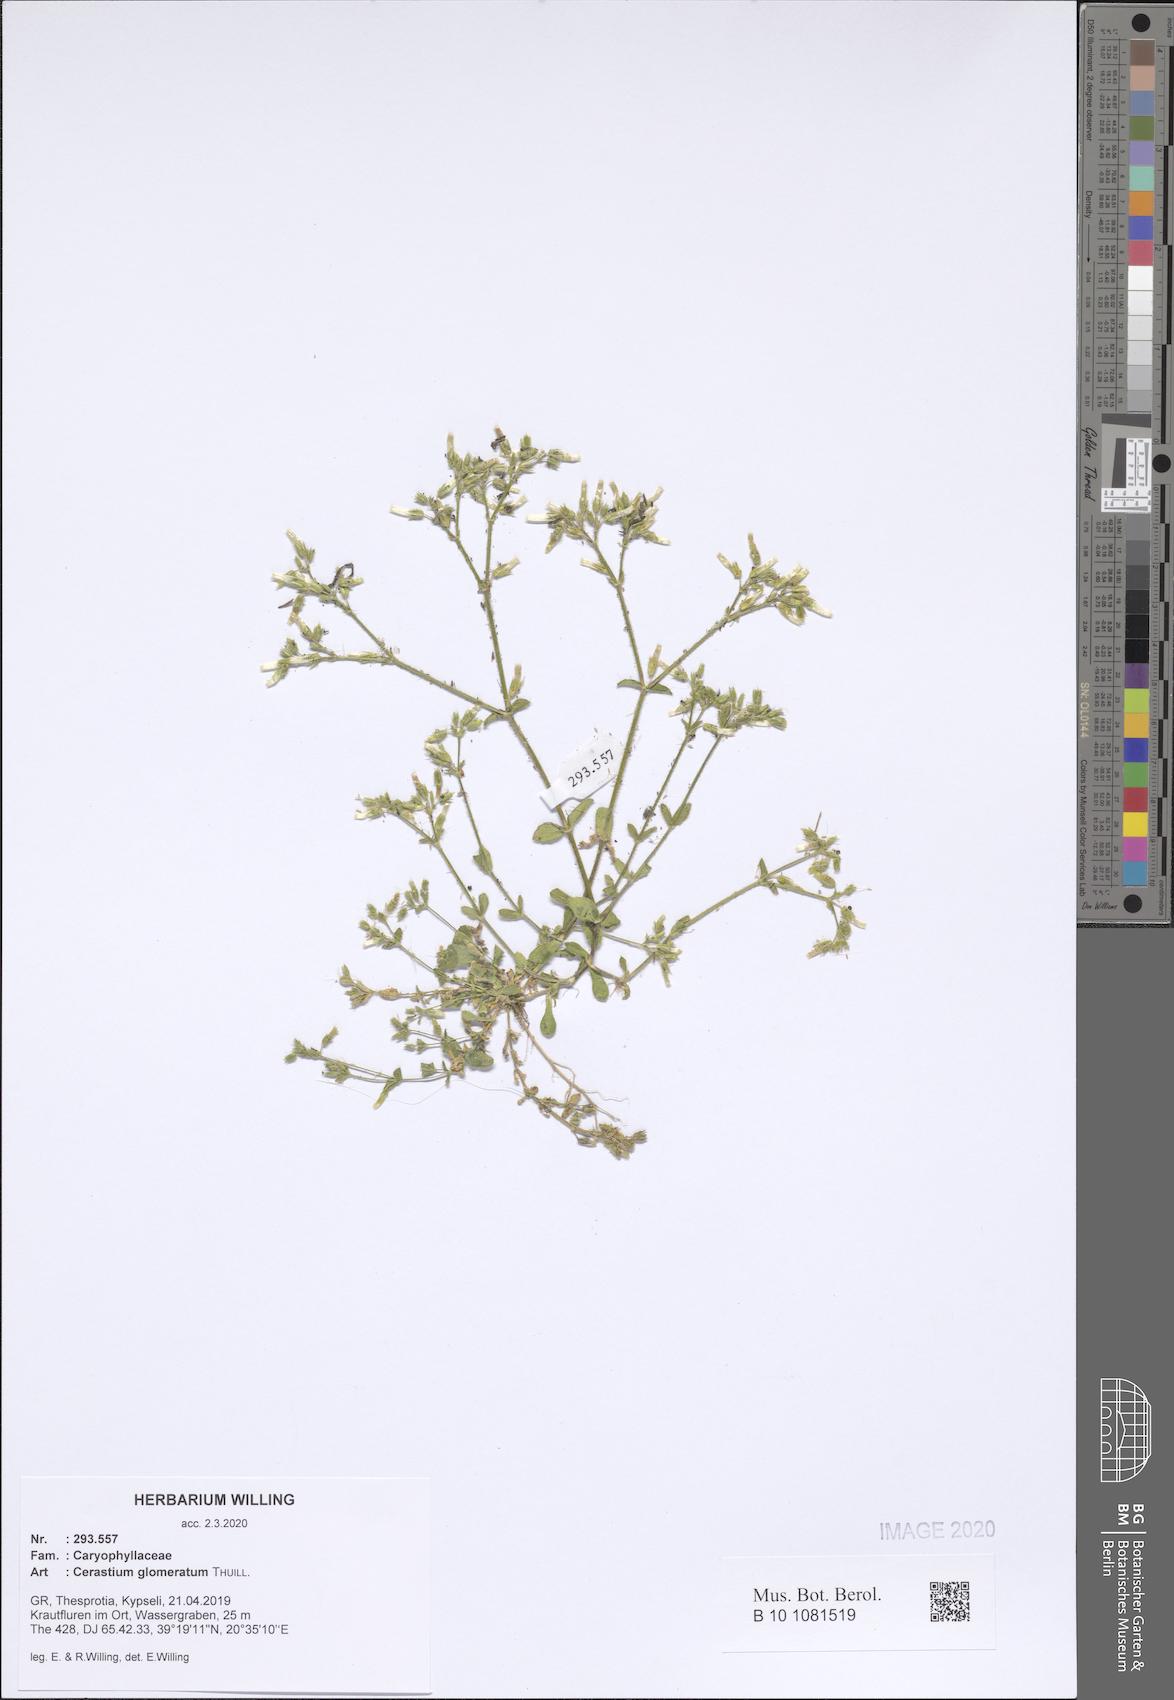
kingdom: Plantae
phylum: Tracheophyta
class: Magnoliopsida
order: Caryophyllales
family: Caryophyllaceae
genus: Cerastium
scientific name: Cerastium glomeratum
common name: Sticky chickweed
